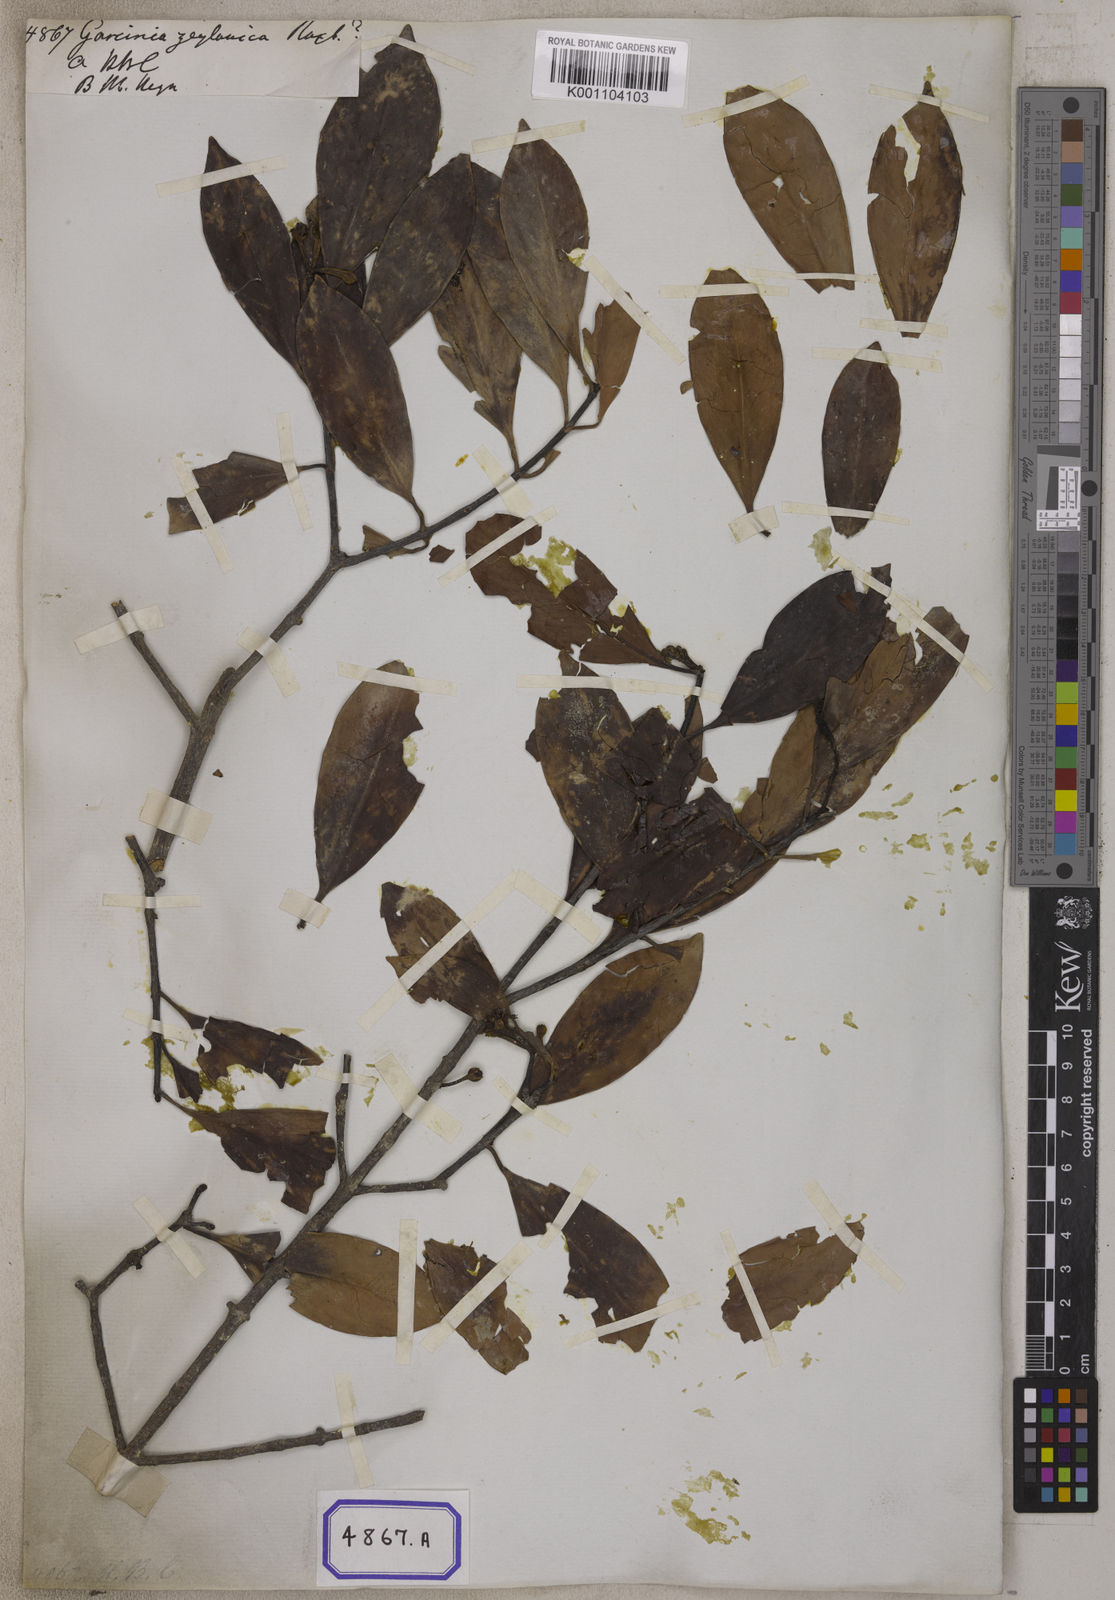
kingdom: Plantae
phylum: Tracheophyta
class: Magnoliopsida
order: Malpighiales
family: Clusiaceae
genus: Garcinia
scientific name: Garcinia zeylanica
